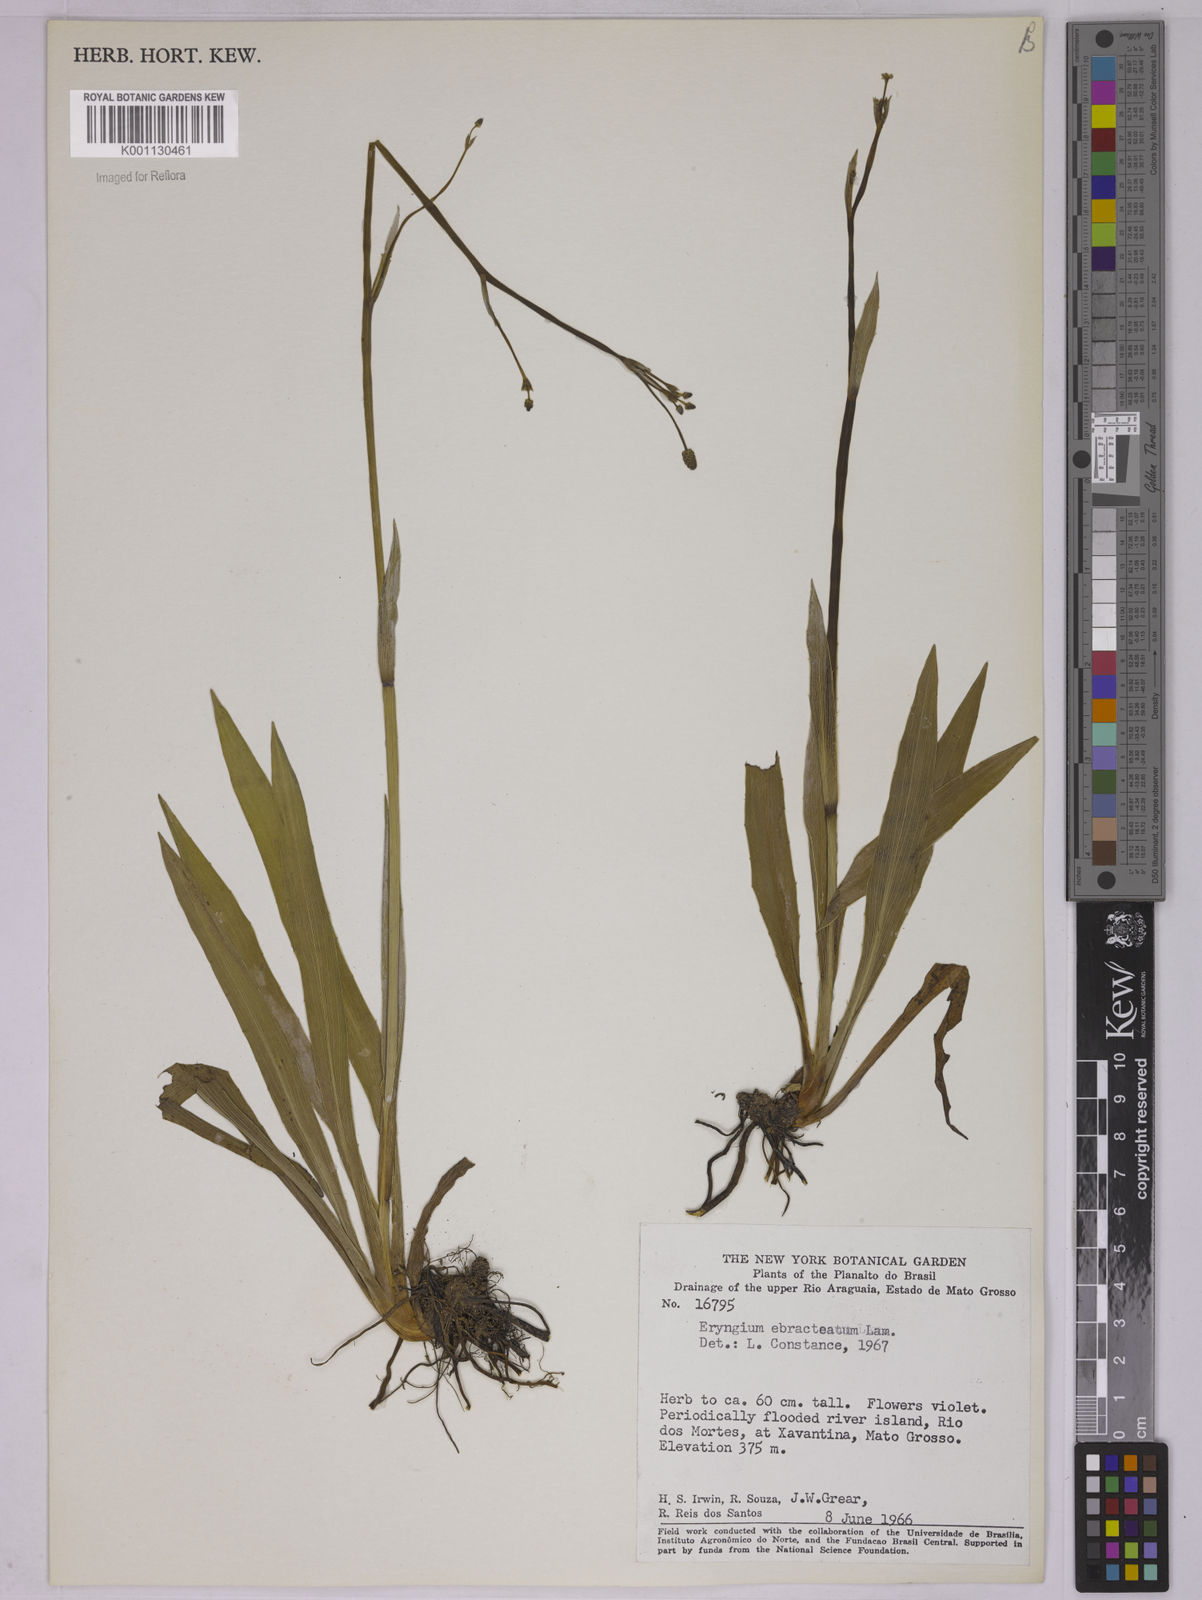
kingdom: Plantae
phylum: Tracheophyta
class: Magnoliopsida
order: Apiales
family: Apiaceae
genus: Eryngium
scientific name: Eryngium ebracteatum
